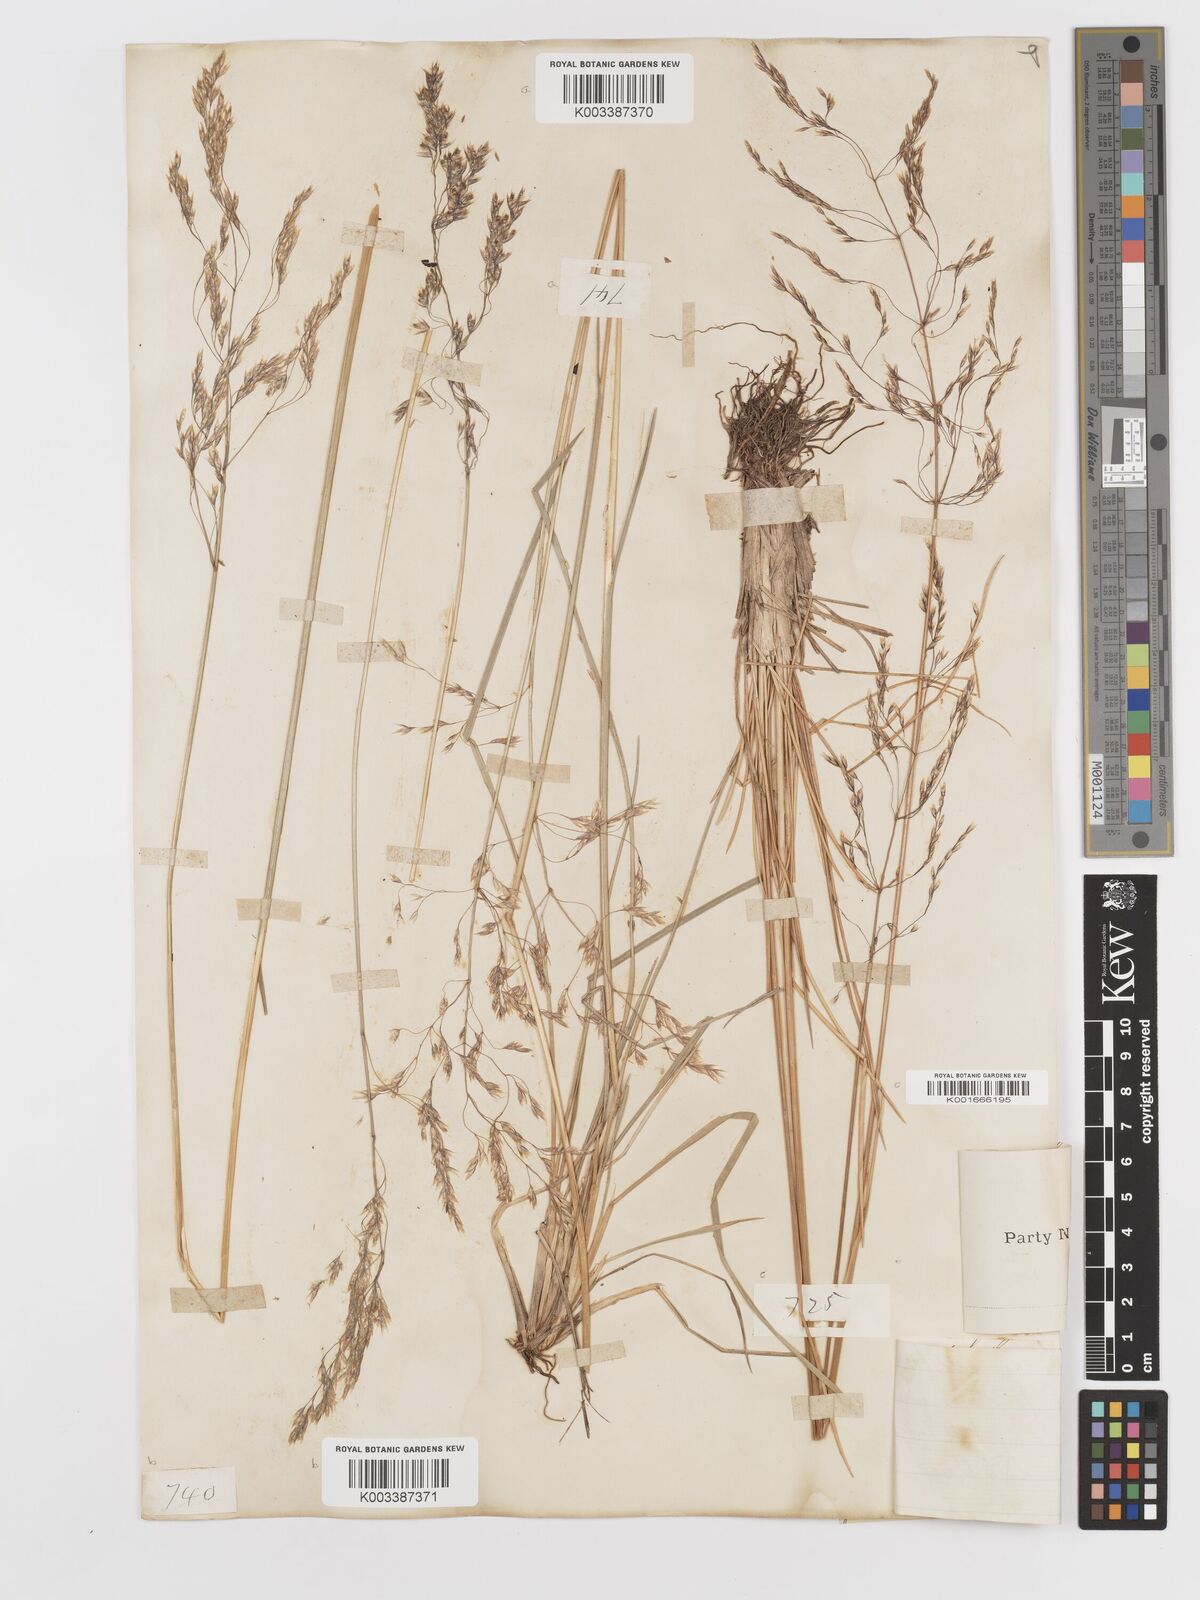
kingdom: Plantae
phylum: Tracheophyta
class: Liliopsida
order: Poales
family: Poaceae
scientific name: Poaceae
